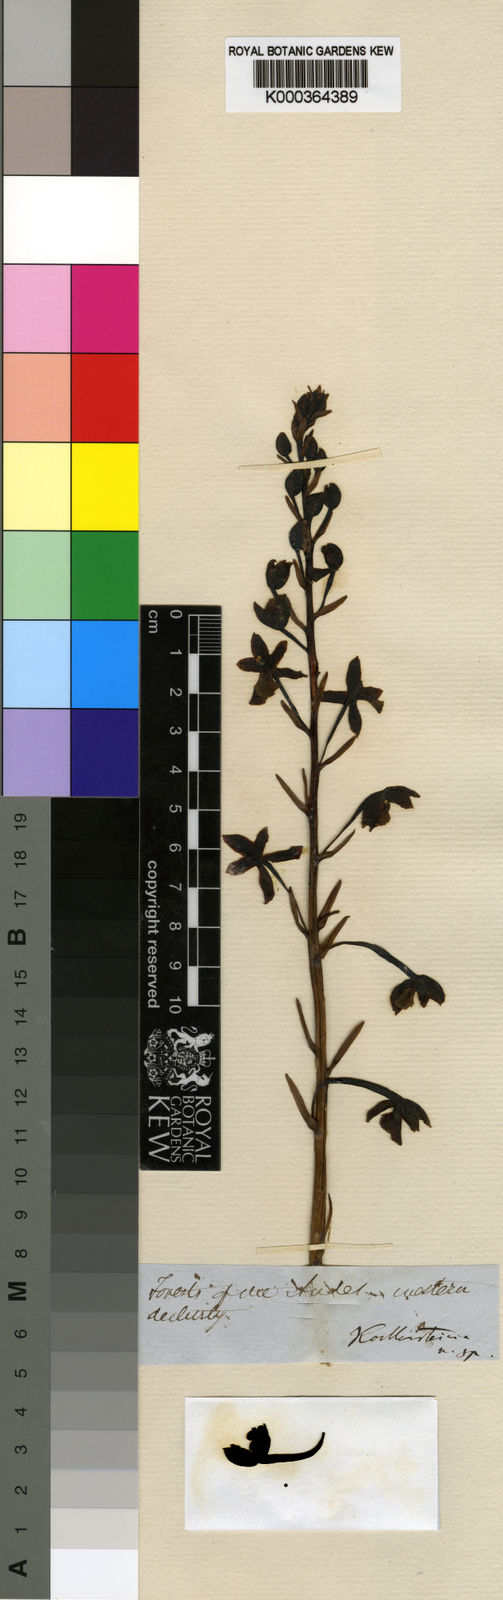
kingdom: Plantae
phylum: Tracheophyta
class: Liliopsida
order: Asparagales
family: Orchidaceae
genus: Warreopsis
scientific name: Warreopsis pardina
